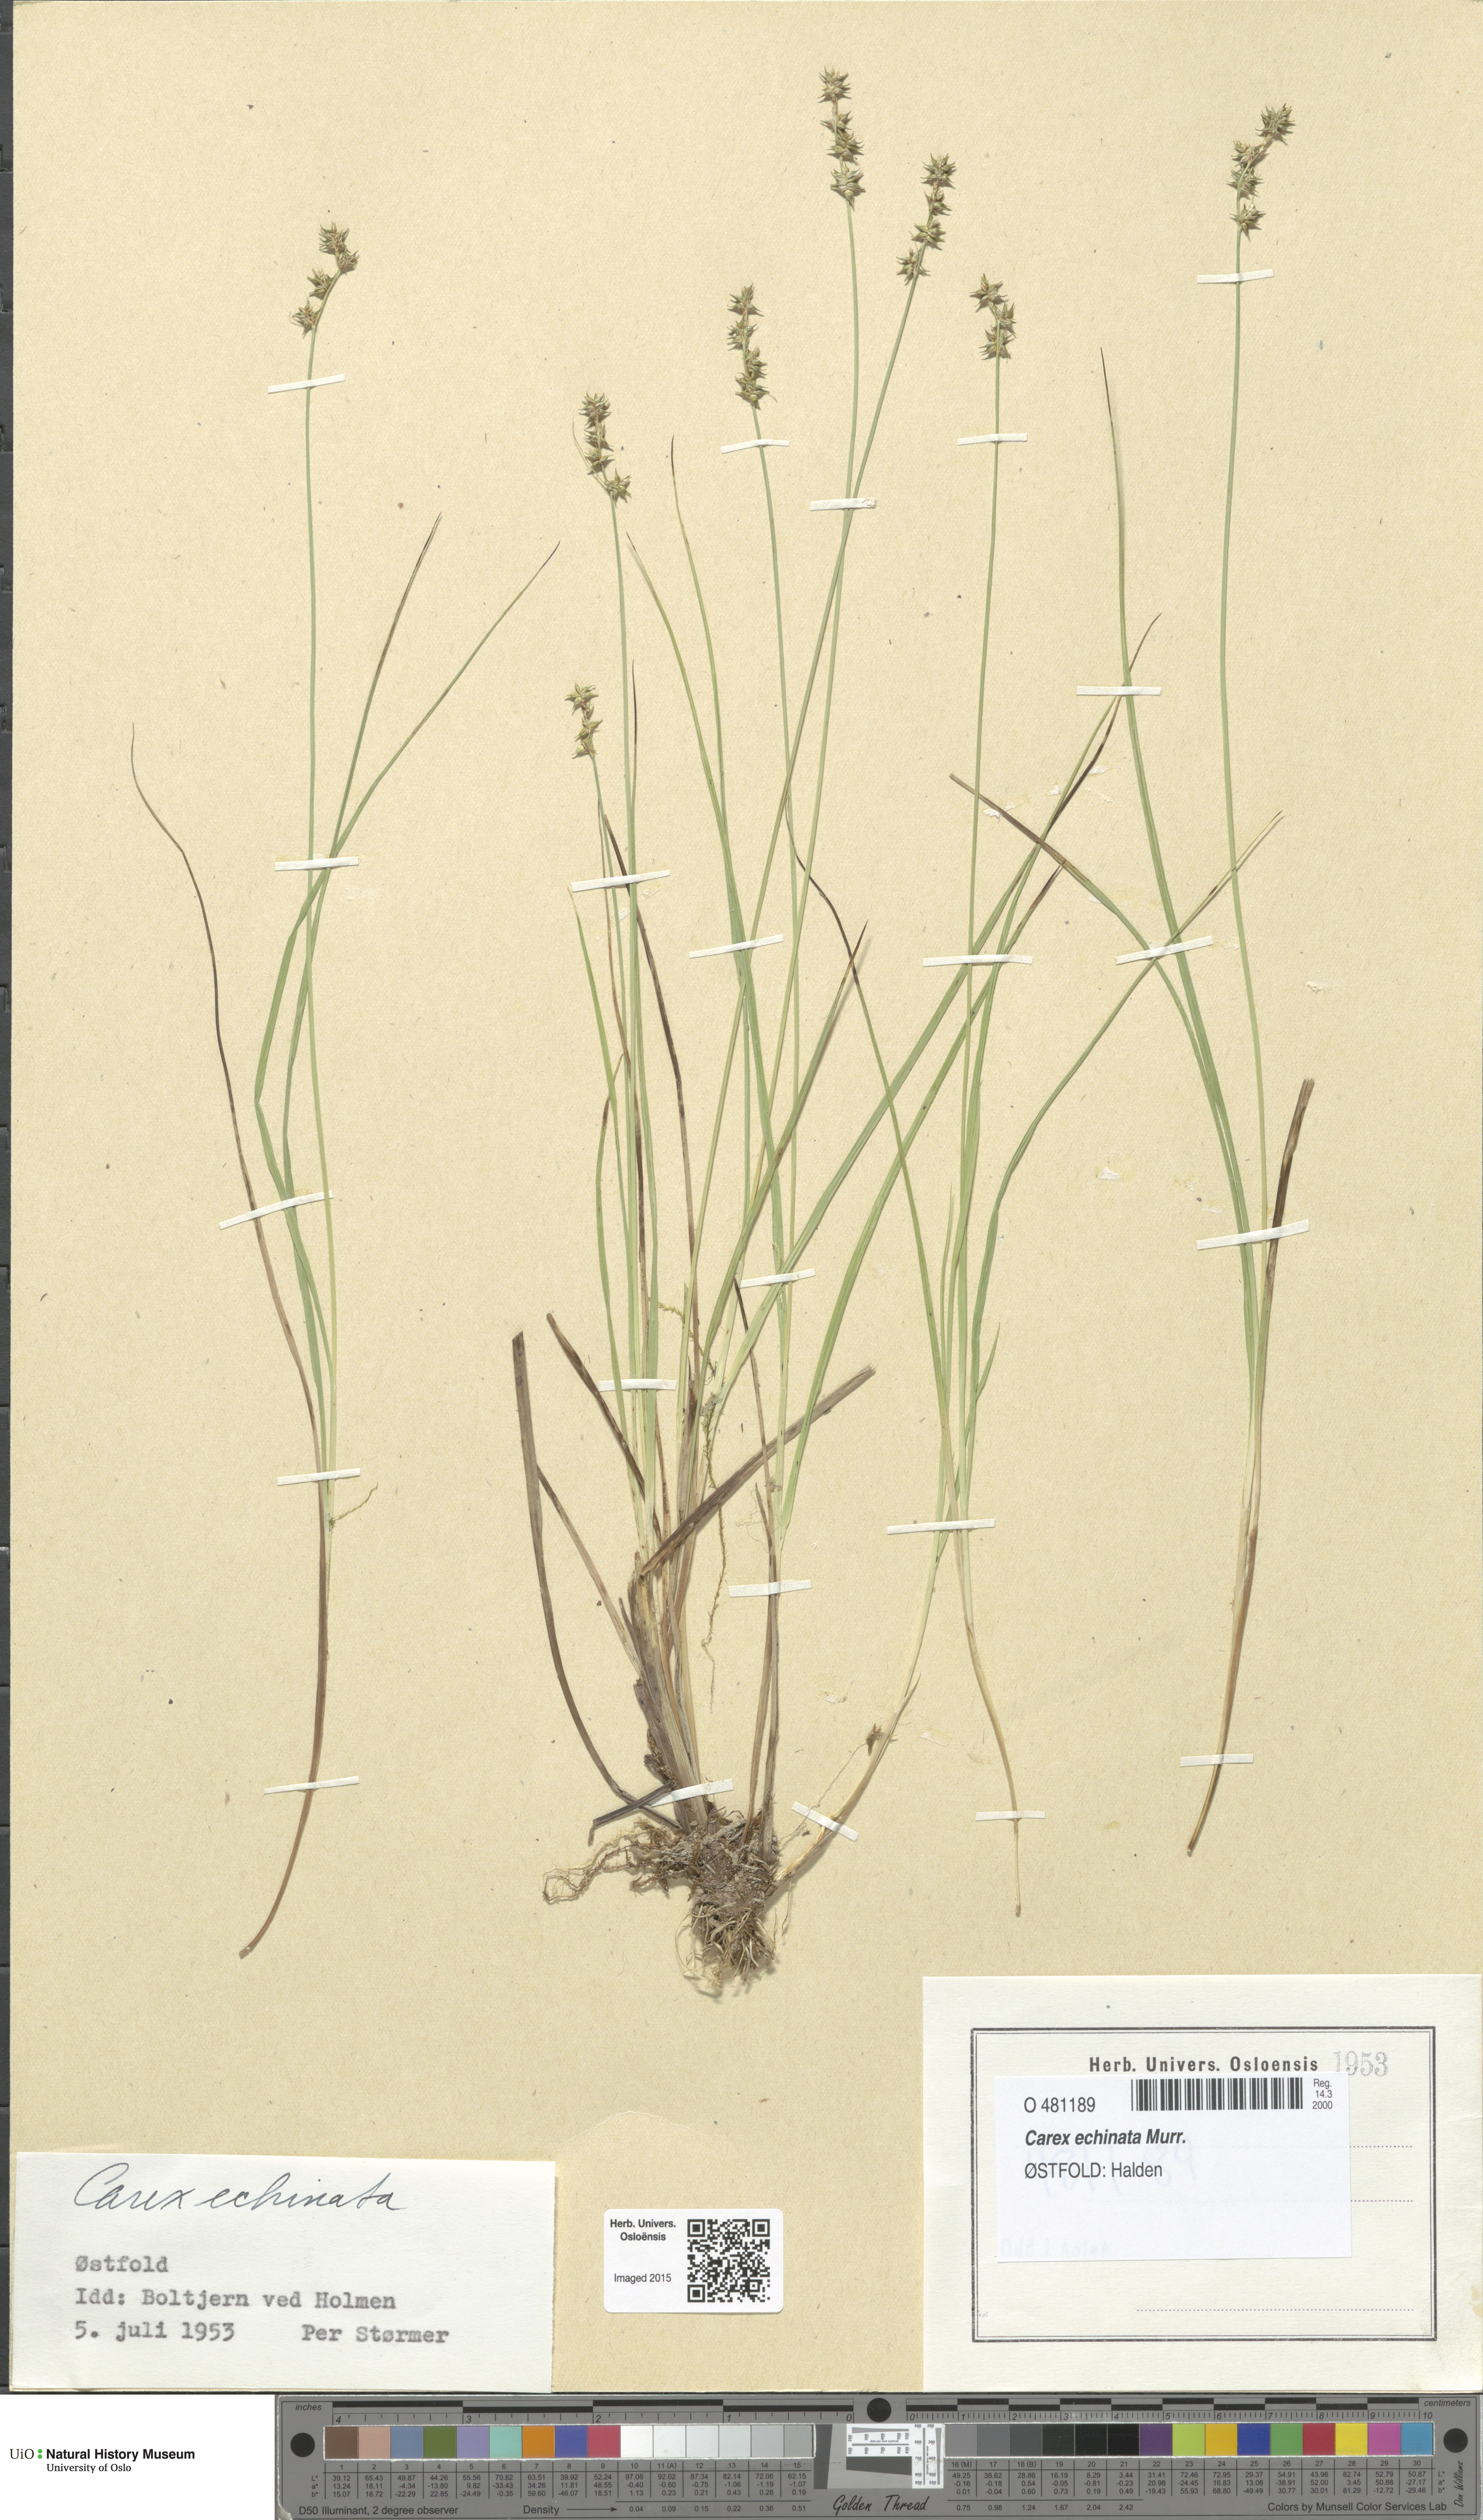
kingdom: Plantae
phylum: Tracheophyta
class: Liliopsida
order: Poales
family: Cyperaceae
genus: Carex
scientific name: Carex echinata
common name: Star sedge
